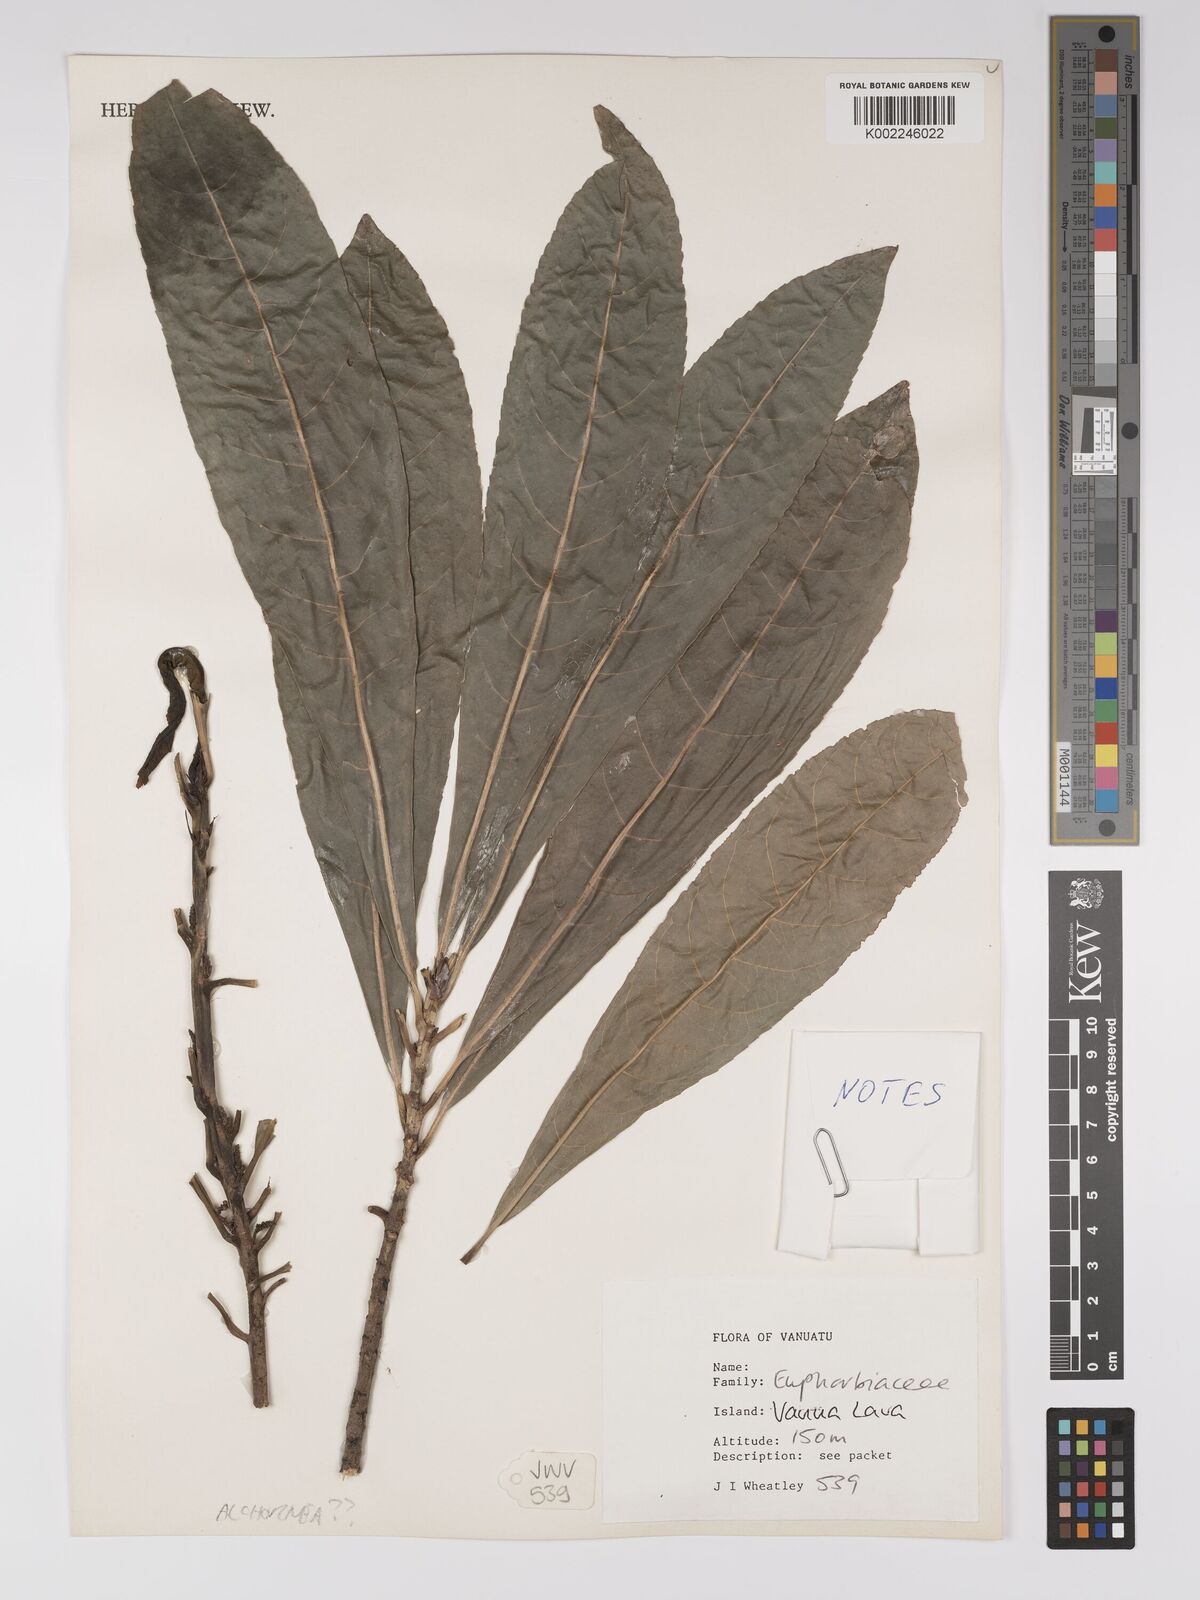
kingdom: Plantae
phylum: Tracheophyta
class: Magnoliopsida
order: Malpighiales
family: Euphorbiaceae
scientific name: Euphorbiaceae
